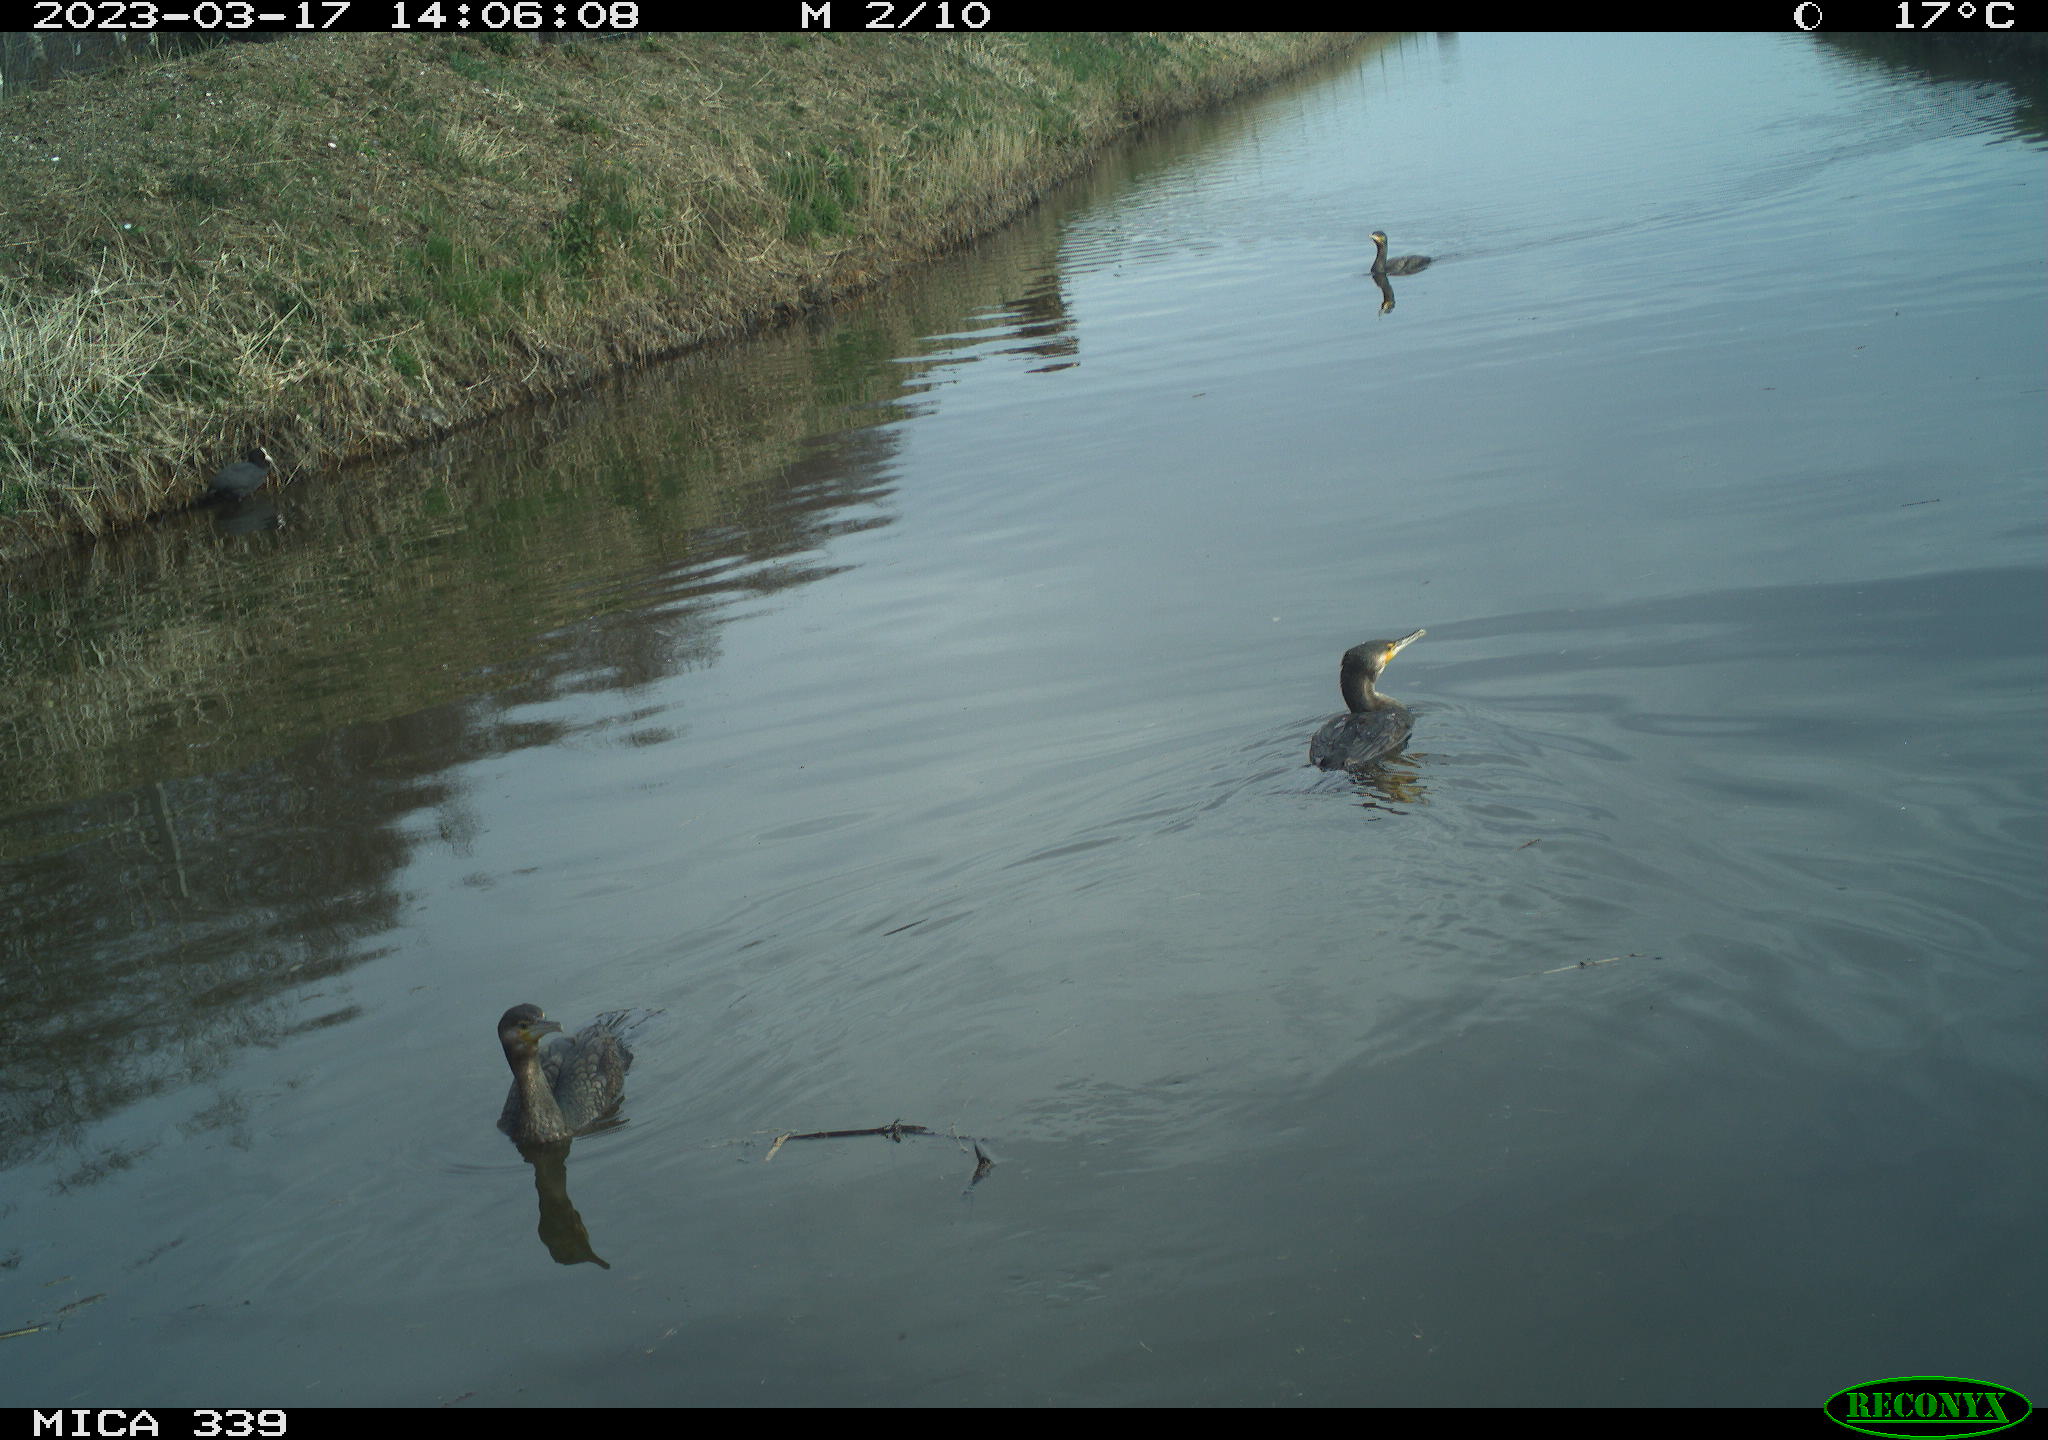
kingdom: Animalia
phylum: Chordata
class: Aves
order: Gruiformes
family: Rallidae
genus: Fulica
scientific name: Fulica atra
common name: Eurasian coot
